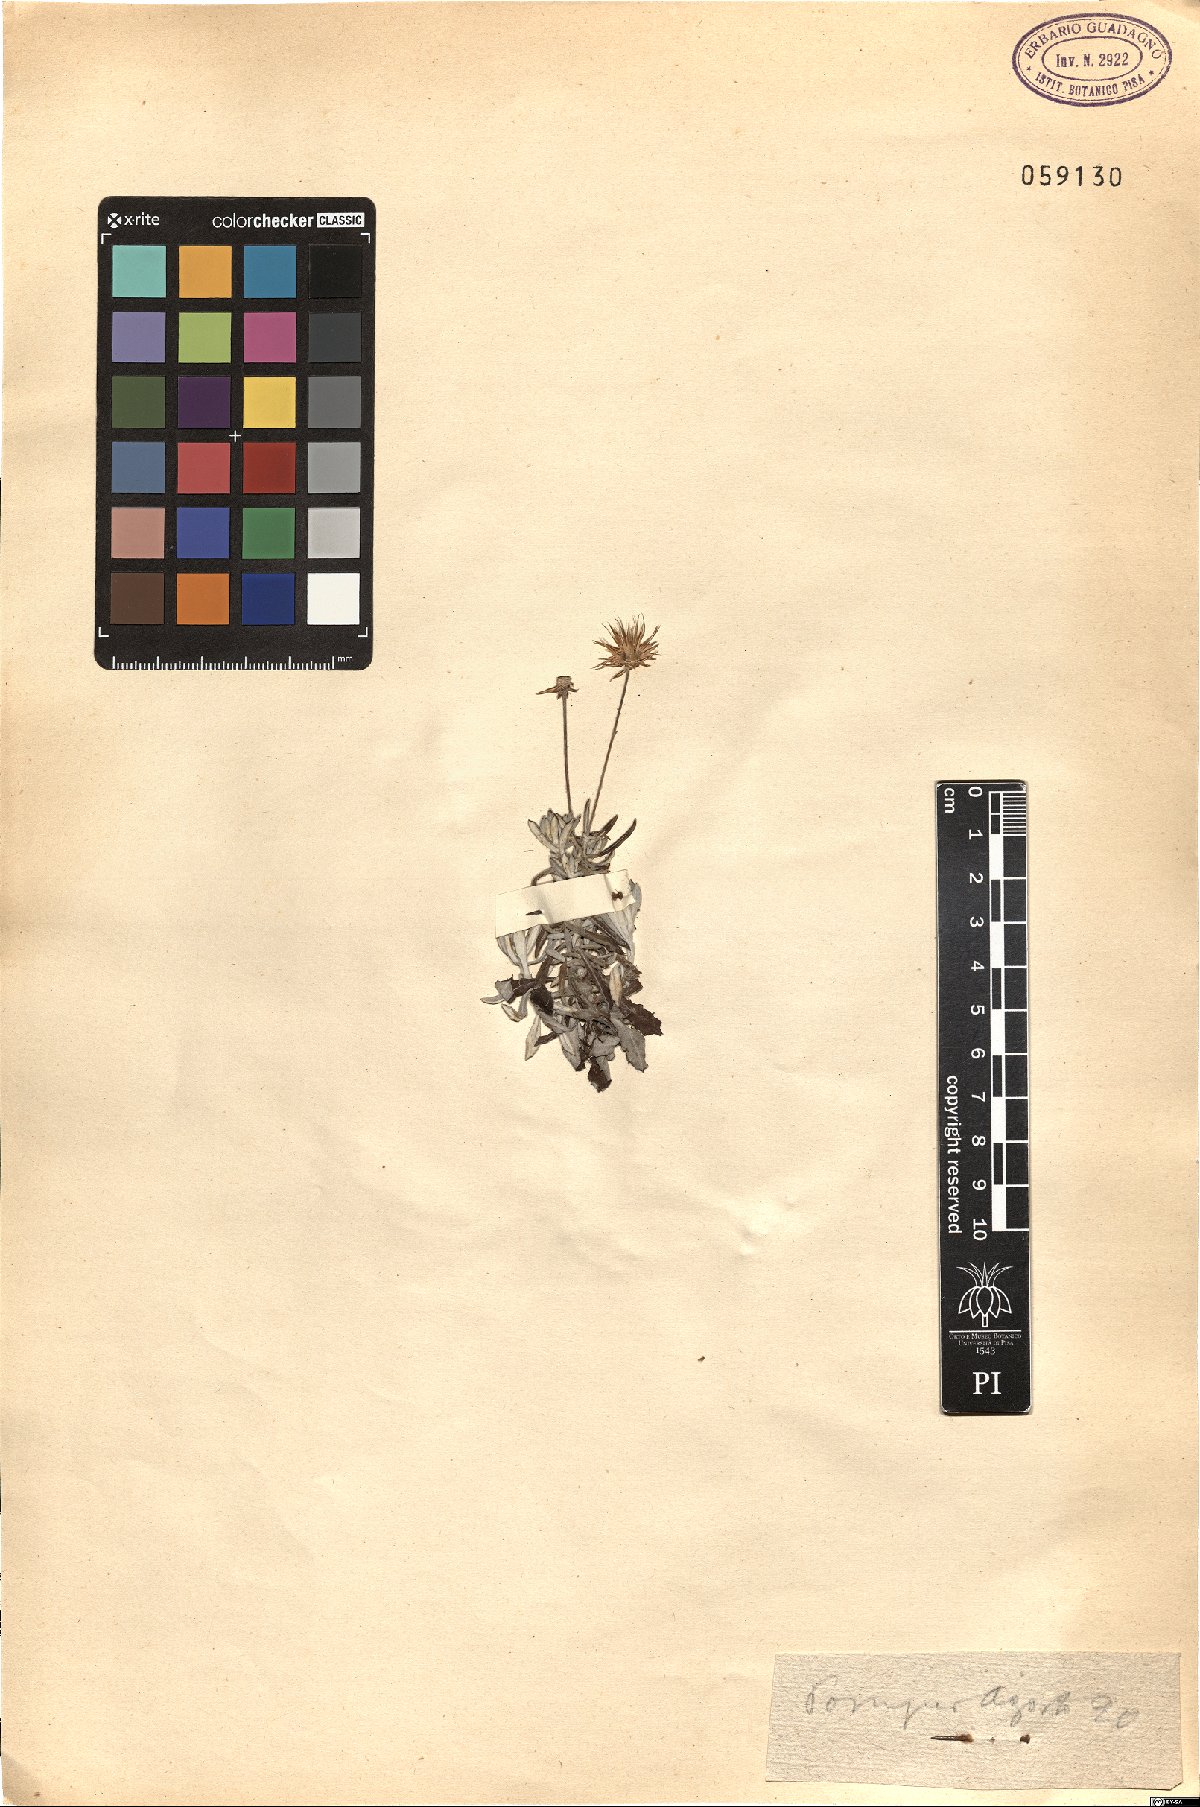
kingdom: Plantae
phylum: Tracheophyta
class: Magnoliopsida
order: Asterales
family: Asteraceae
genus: Phagnalon
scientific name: Phagnalon rupestre
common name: Rock phagnalon
